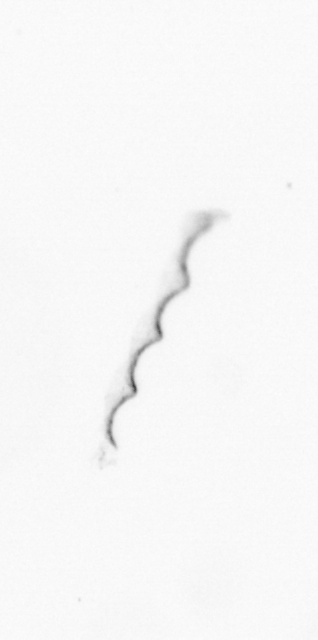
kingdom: Chromista
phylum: Ochrophyta
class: Bacillariophyceae
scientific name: Bacillariophyceae
